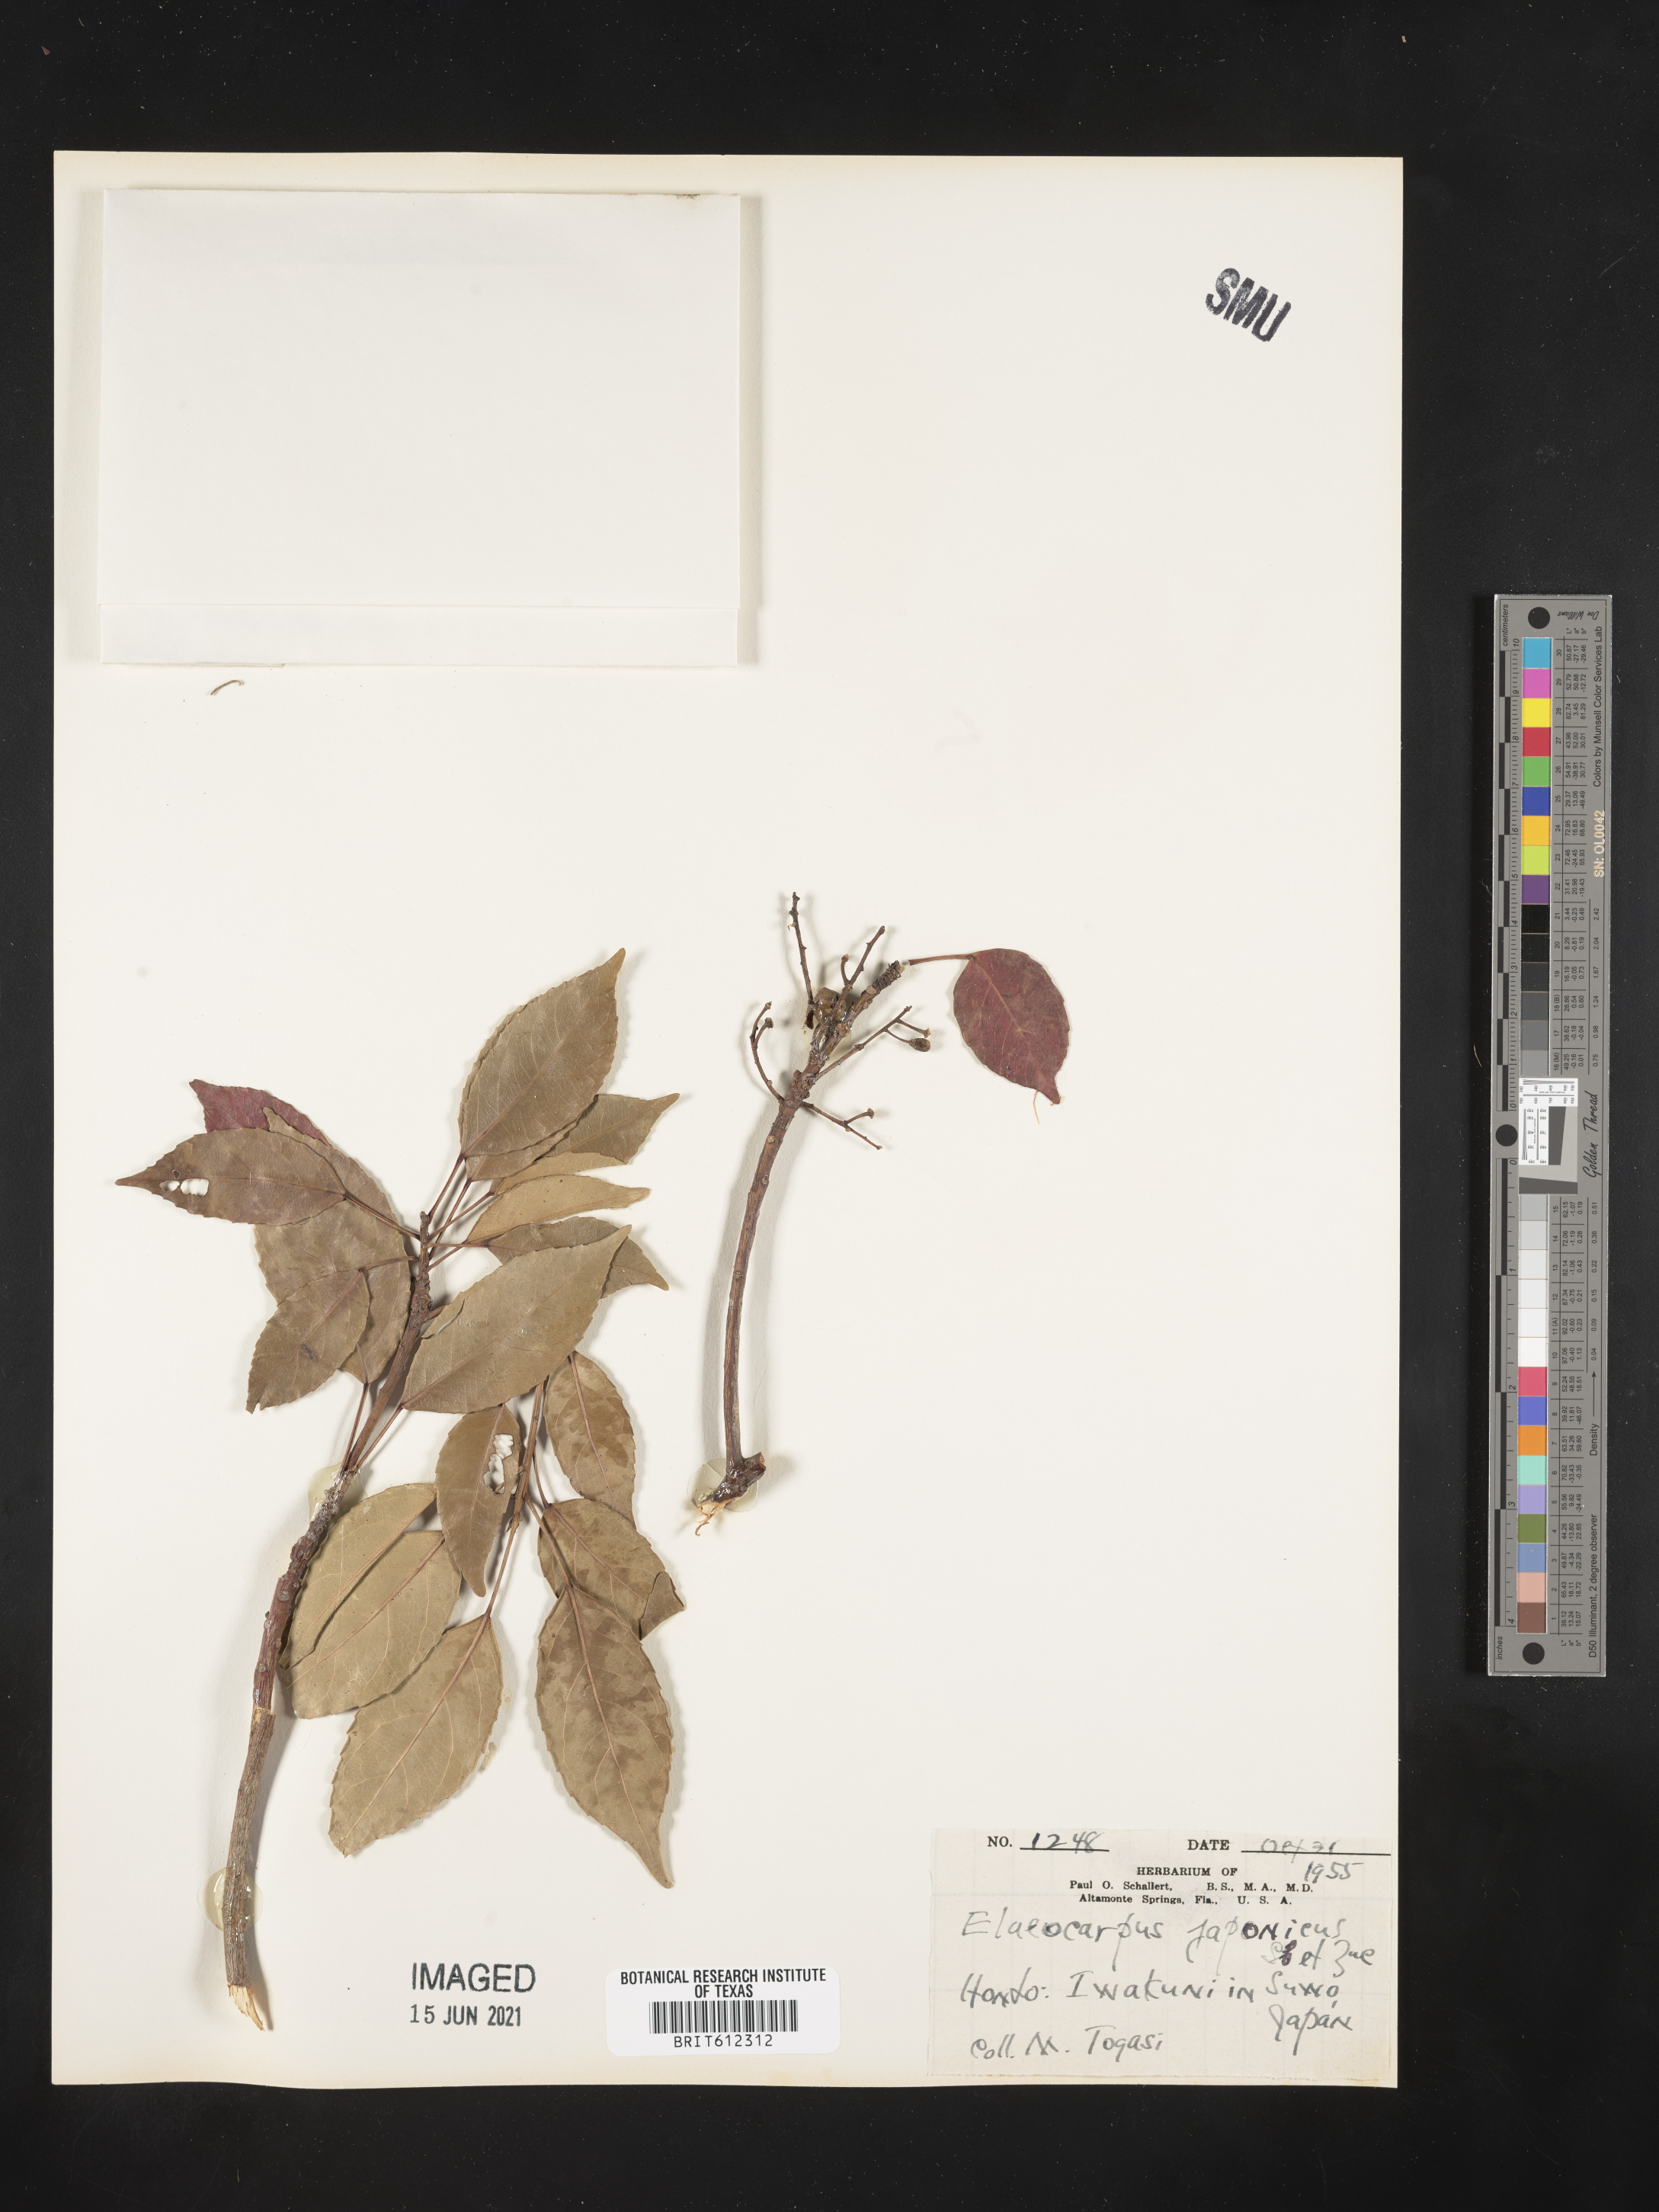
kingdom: Plantae
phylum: Tracheophyta
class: Magnoliopsida
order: Oxalidales
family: Elaeocarpaceae
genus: Elaeocarpus
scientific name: Elaeocarpus japonicus
